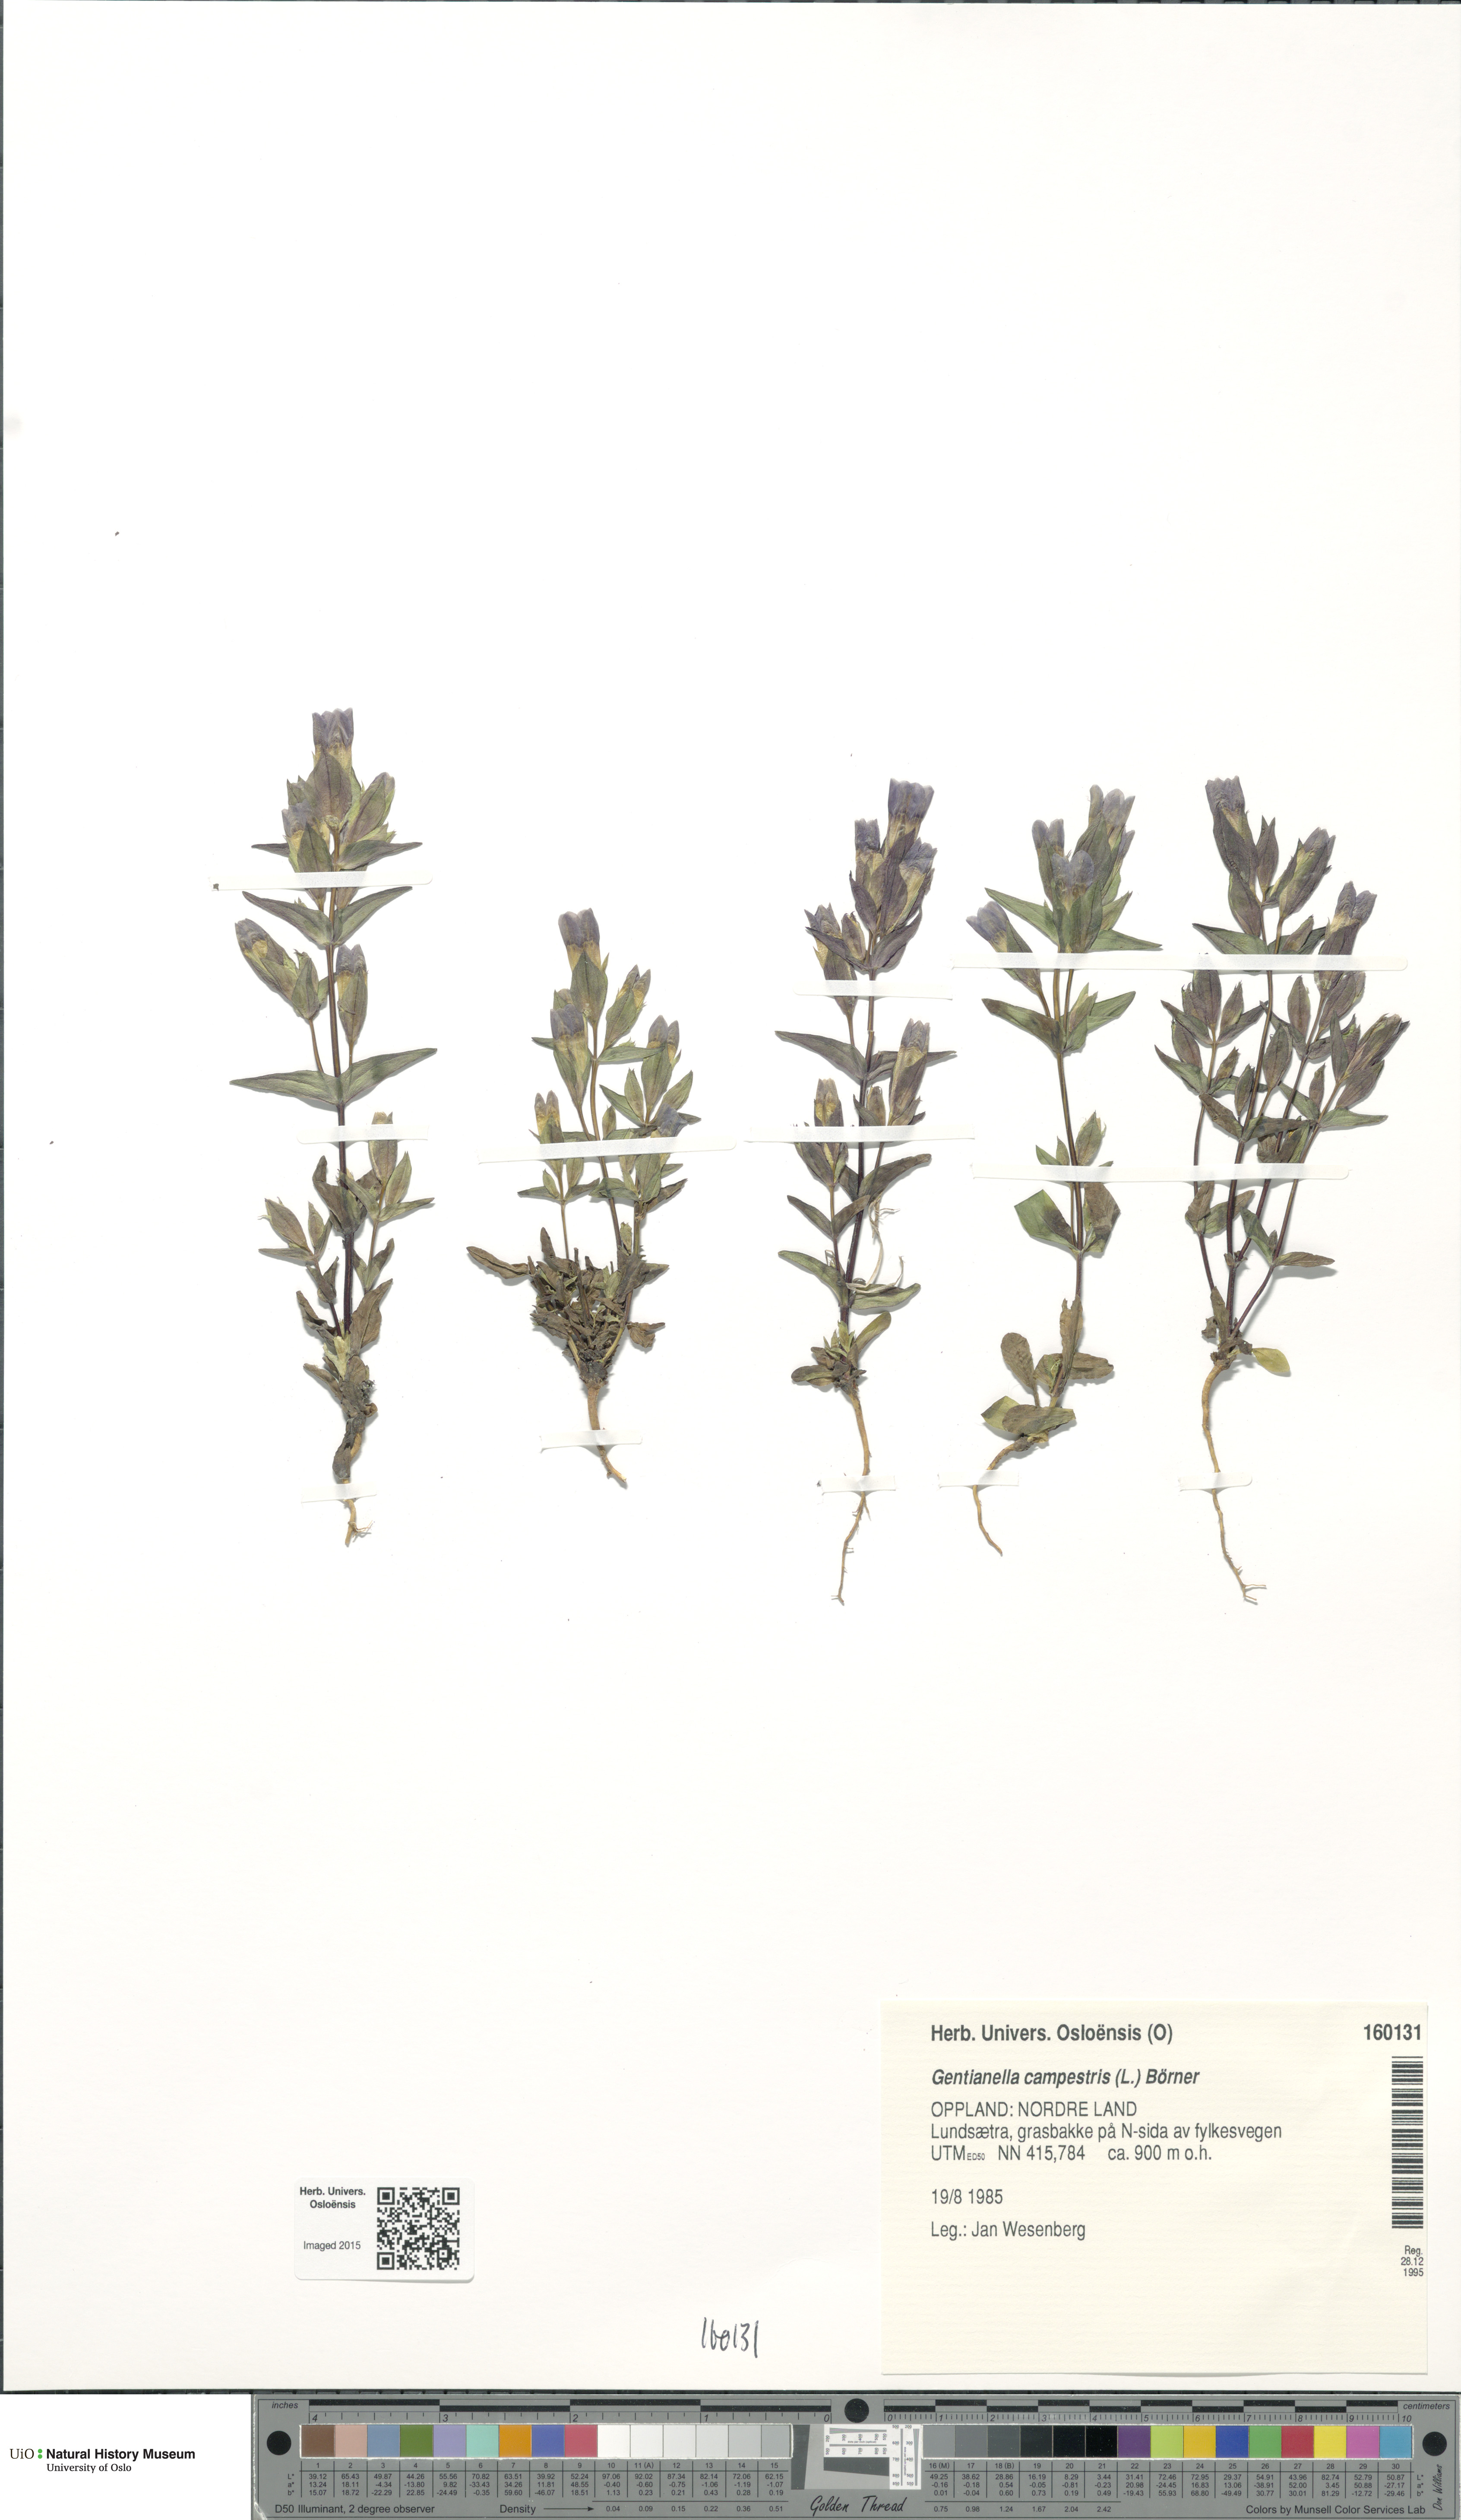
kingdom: Plantae
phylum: Tracheophyta
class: Magnoliopsida
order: Gentianales
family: Gentianaceae
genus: Gentianella
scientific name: Gentianella campestris
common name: Field gentian
